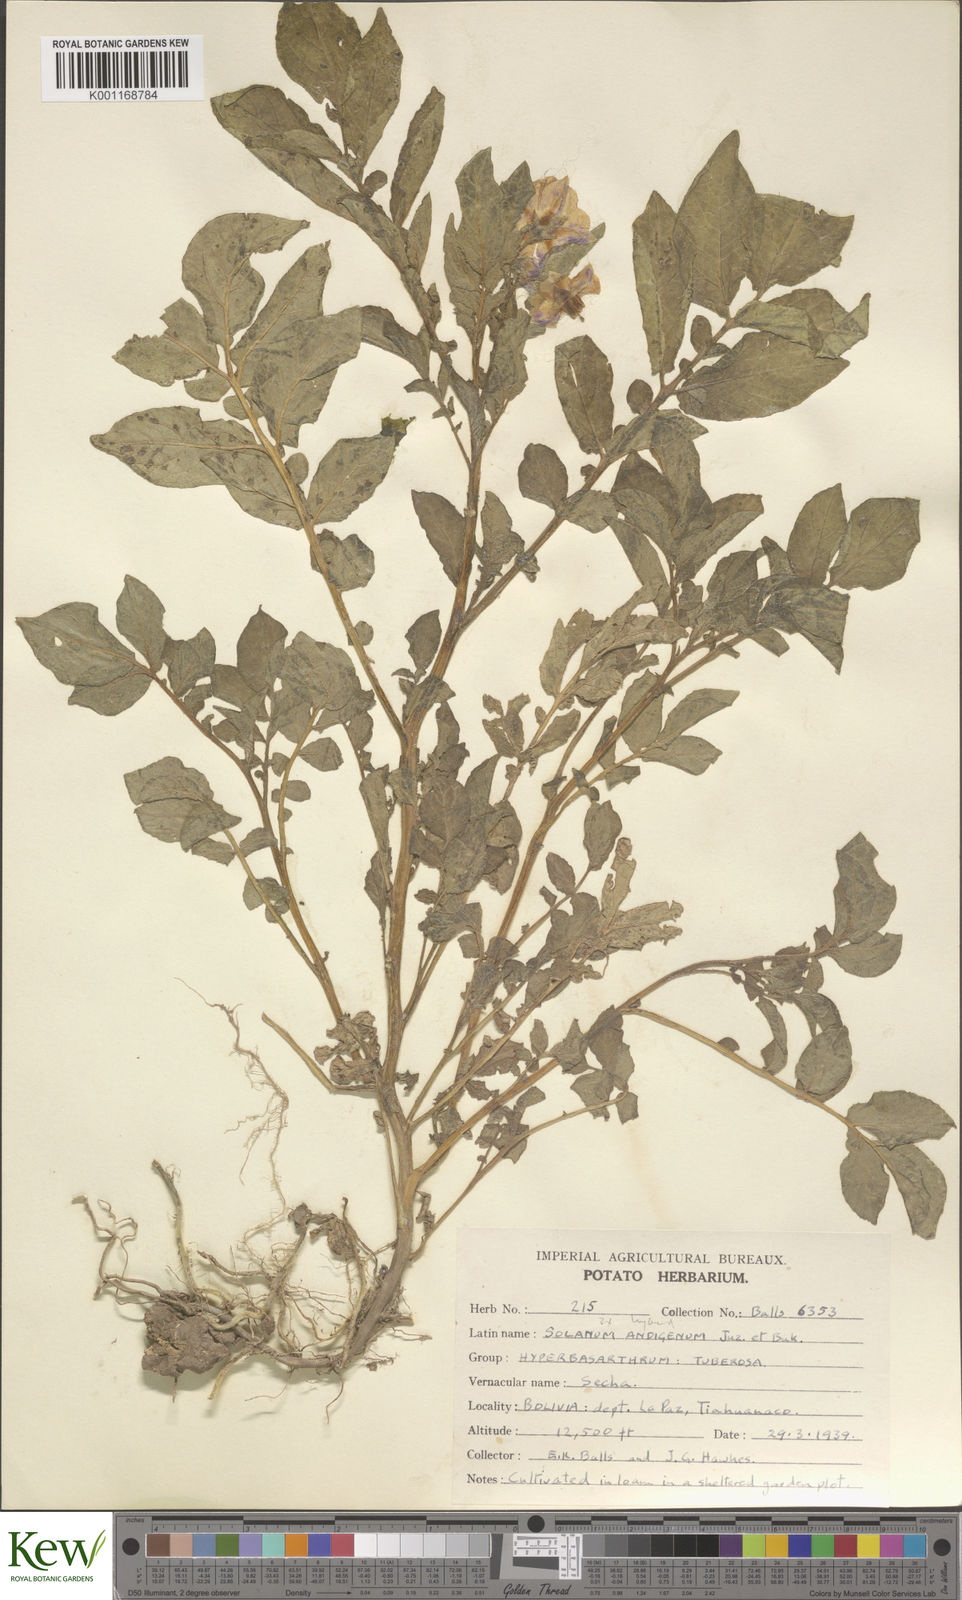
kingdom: Plantae
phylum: Tracheophyta
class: Magnoliopsida
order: Solanales
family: Solanaceae
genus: Solanum
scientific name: Solanum chaucha
